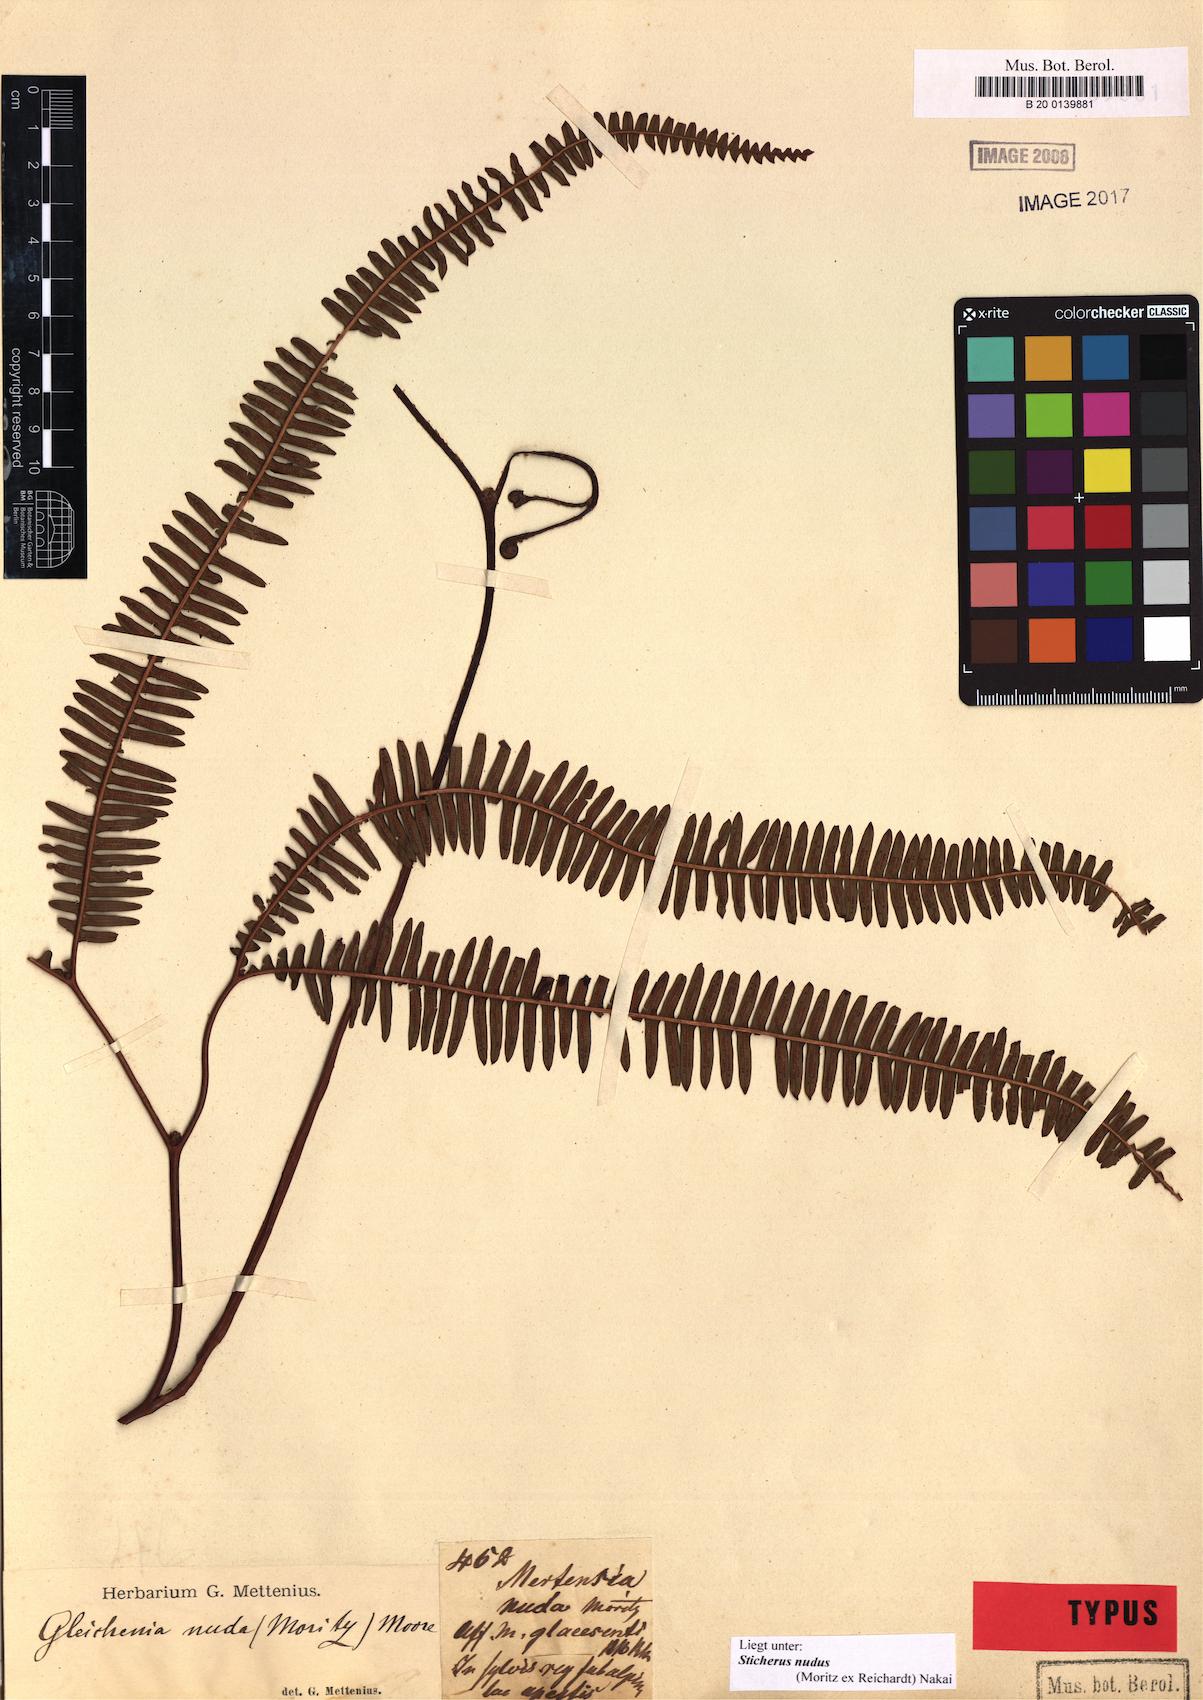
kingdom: Plantae
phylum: Tracheophyta
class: Polypodiopsida
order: Gleicheniales
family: Gleicheniaceae
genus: Sticherus
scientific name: Sticherus nudus
